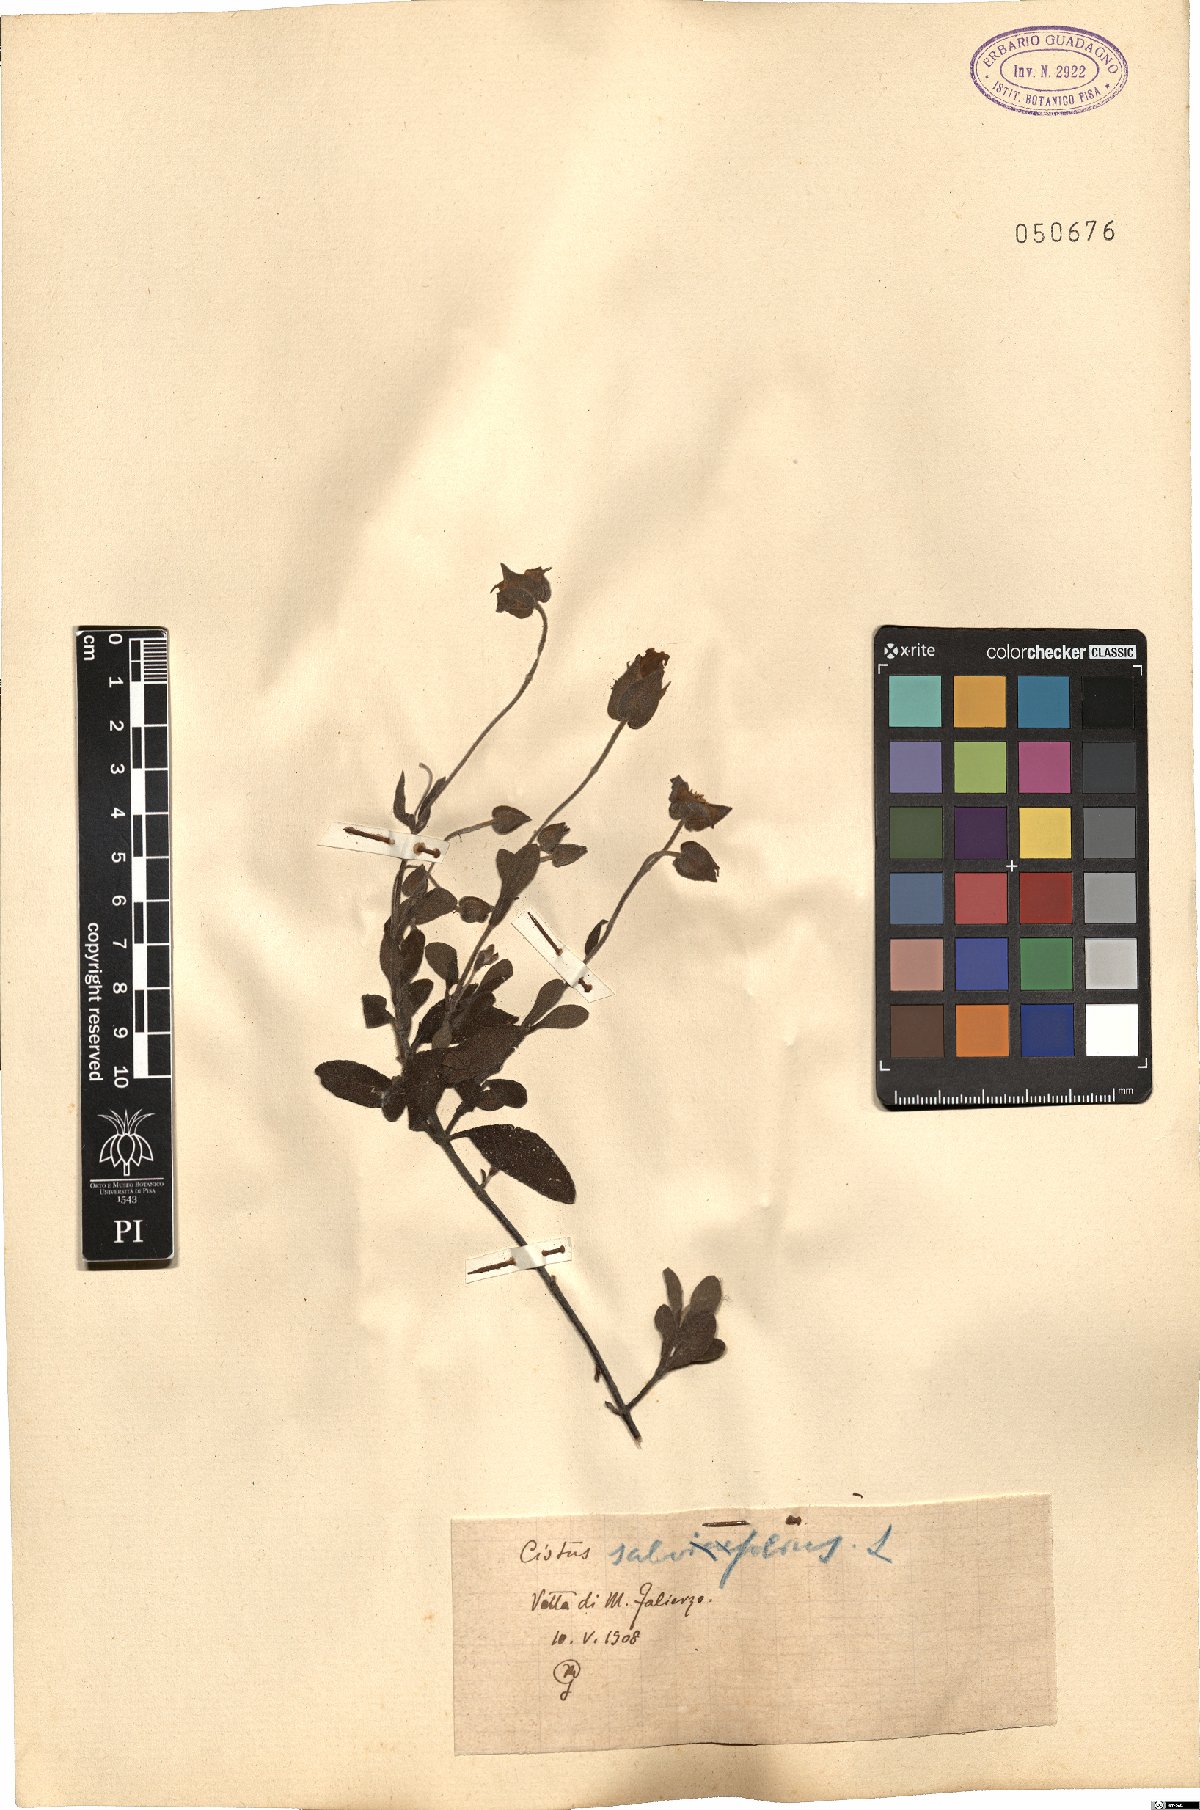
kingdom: Plantae
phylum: Tracheophyta
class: Magnoliopsida
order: Malvales
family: Cistaceae
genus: Cistus
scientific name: Cistus salviifolius
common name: Salvia cistus
